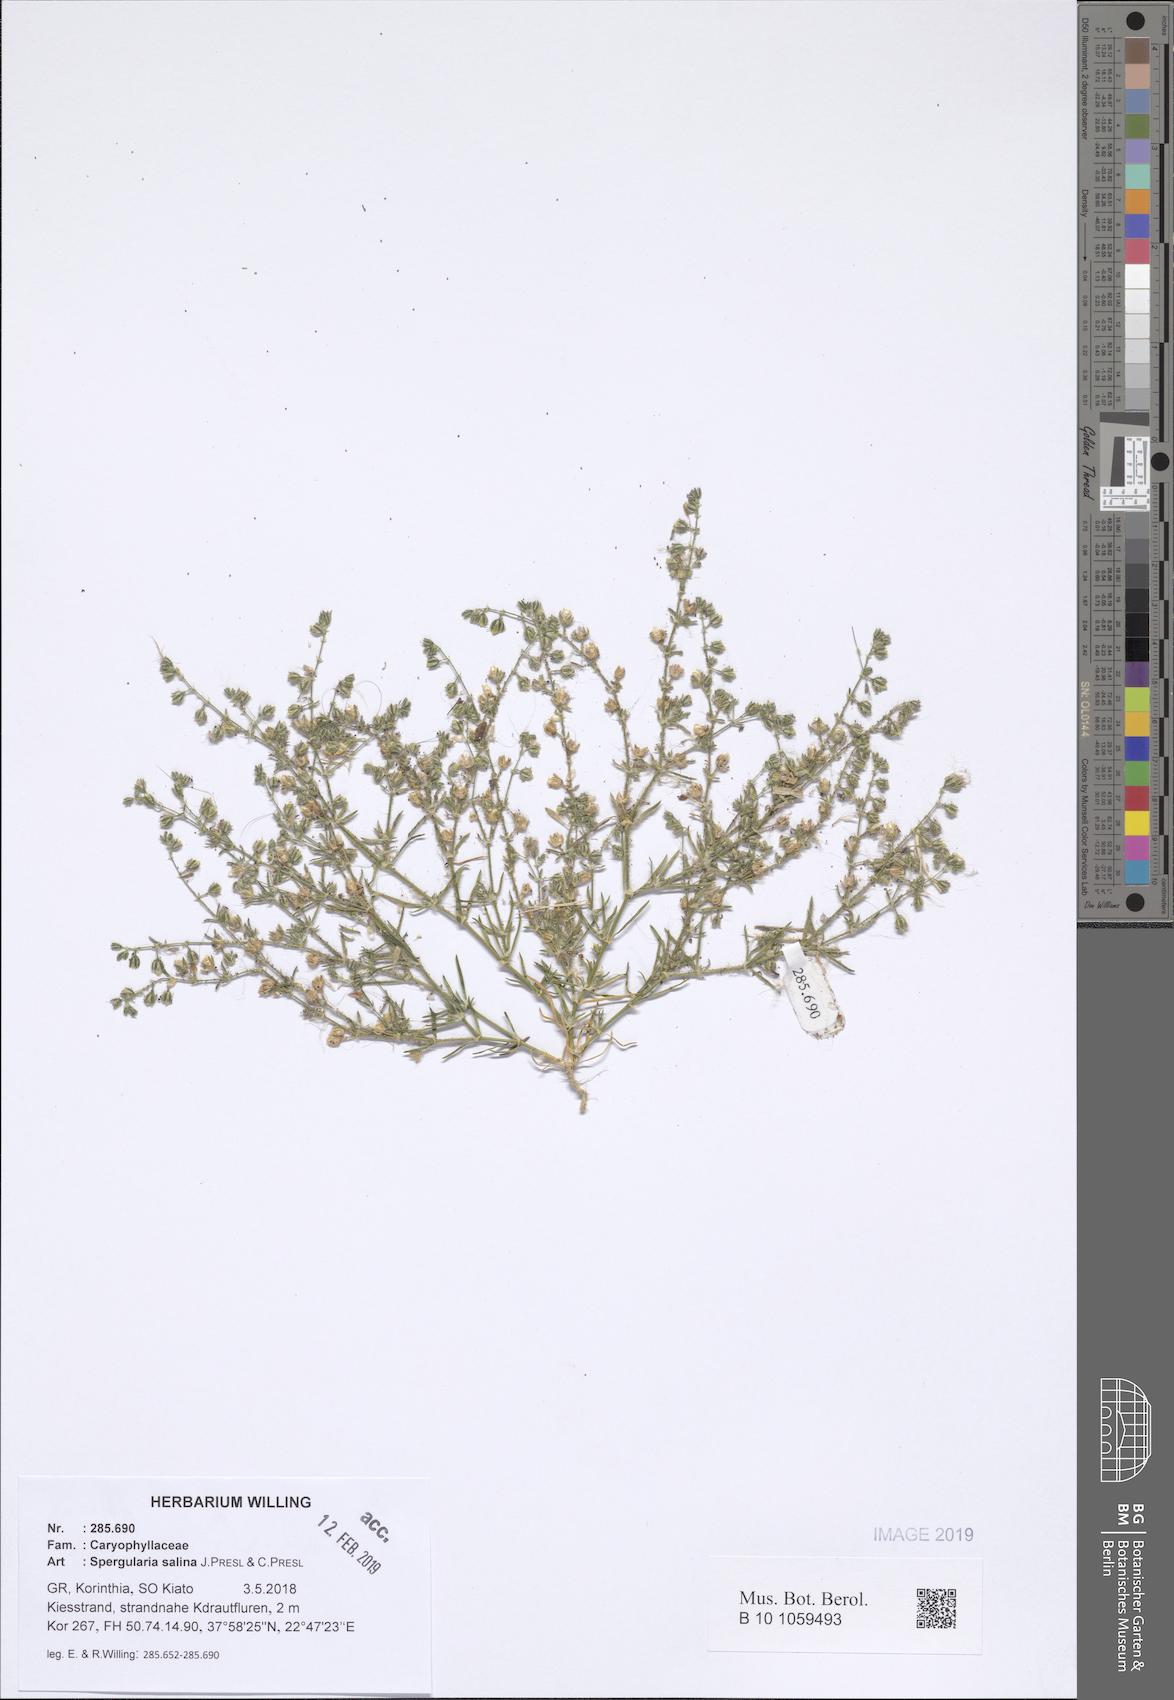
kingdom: Plantae
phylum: Tracheophyta
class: Magnoliopsida
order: Caryophyllales
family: Caryophyllaceae
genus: Spergularia
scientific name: Spergularia marina
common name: Lesser sea-spurrey
